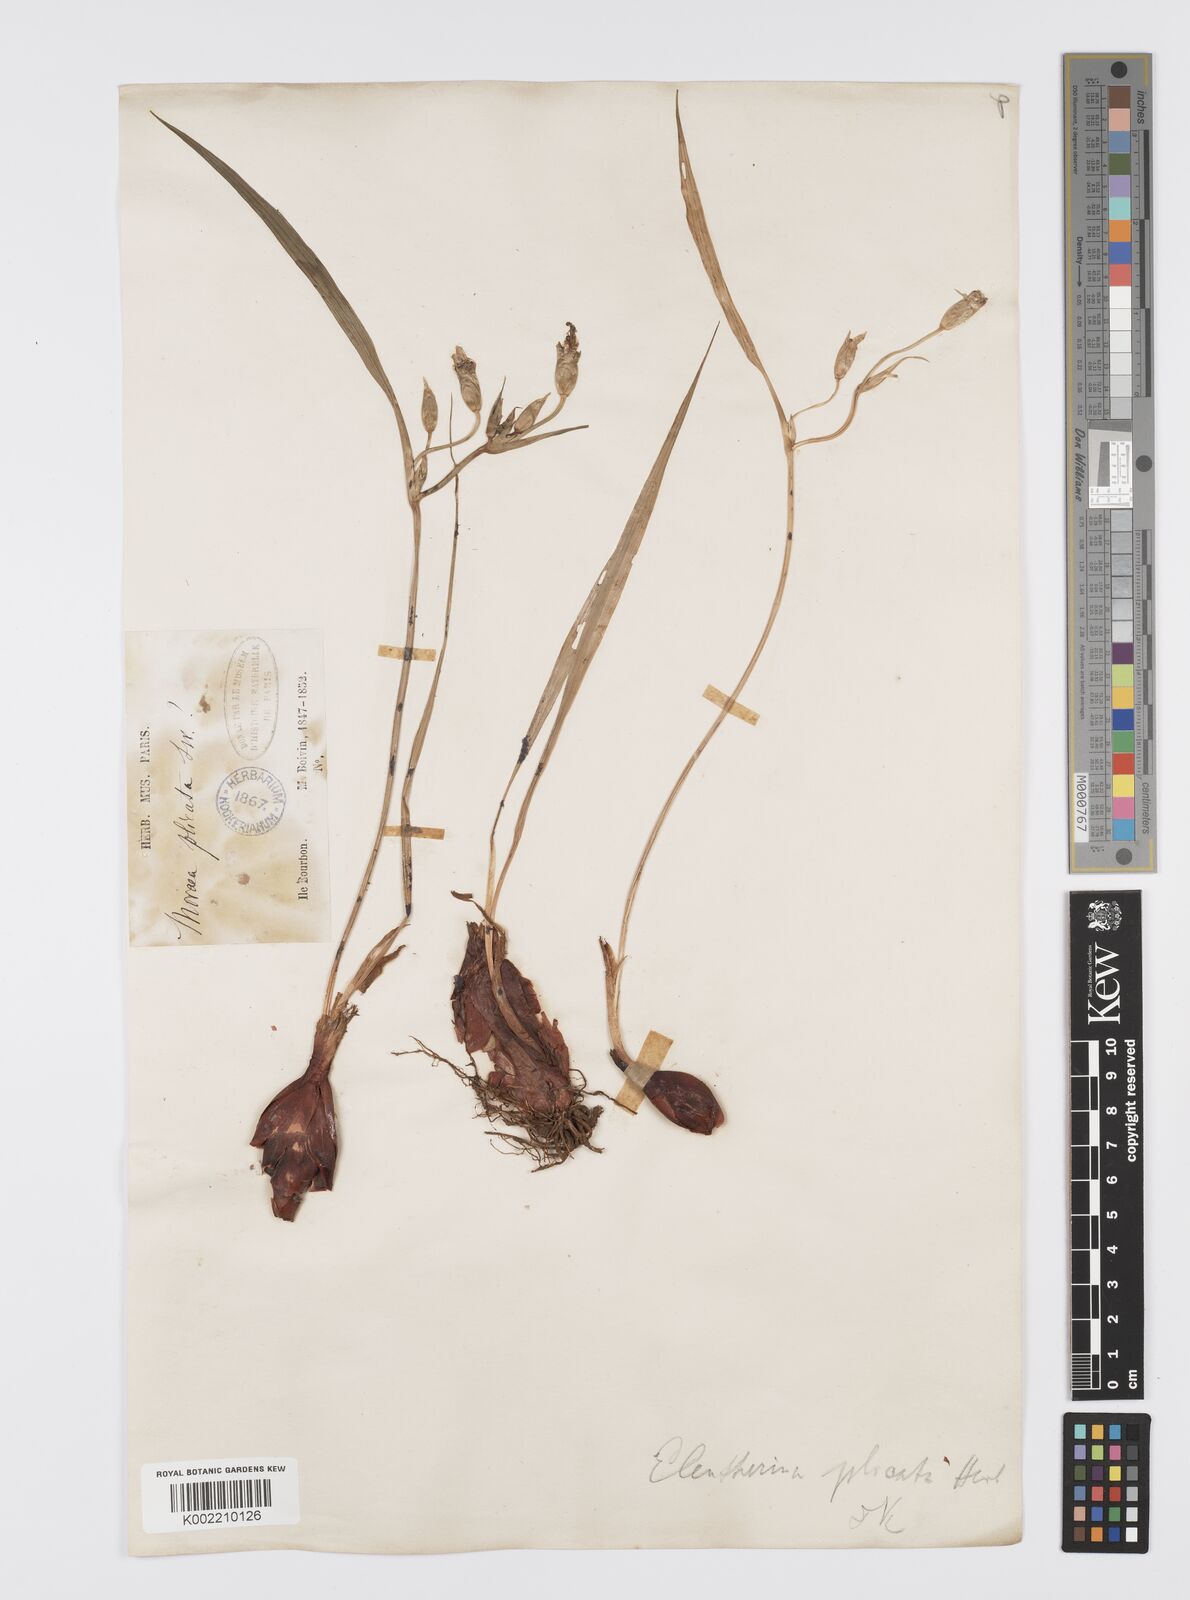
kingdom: Plantae
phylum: Tracheophyta
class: Liliopsida
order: Asparagales
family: Iridaceae
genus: Eleutherine
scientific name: Eleutherine bulbosa
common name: Lagrimas de la virgen
